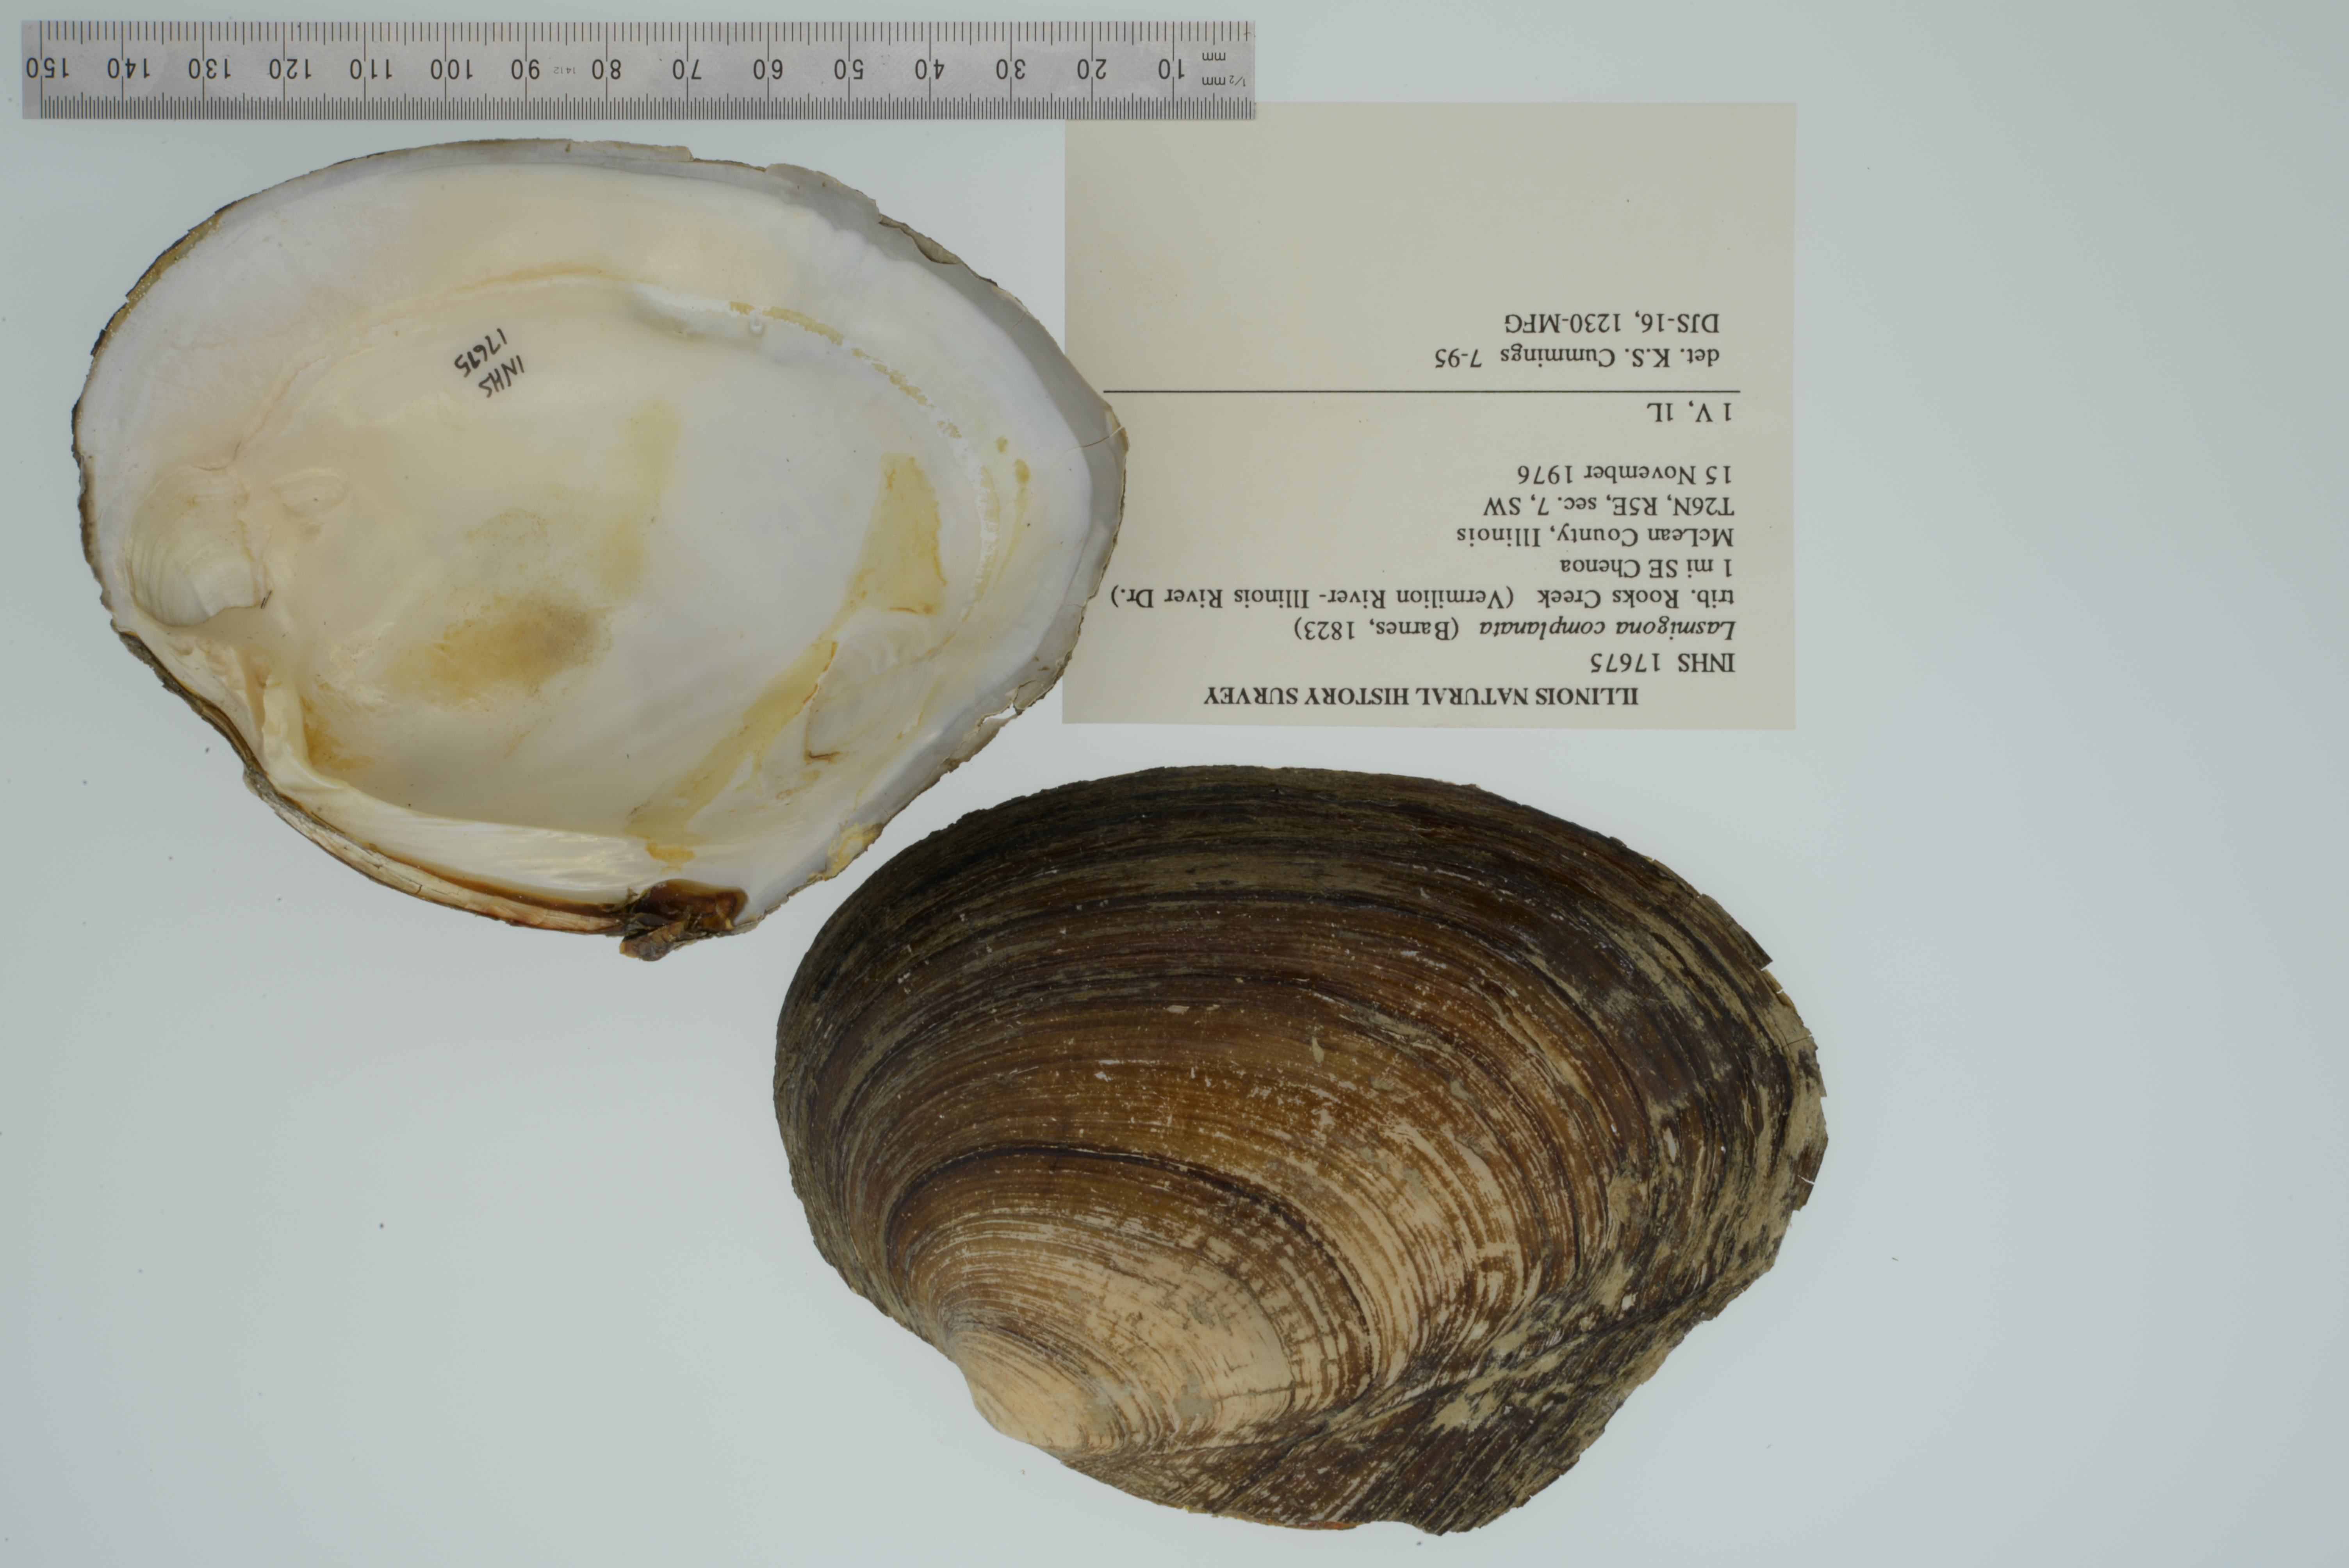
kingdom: Animalia
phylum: Mollusca
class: Bivalvia
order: Unionida
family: Unionidae
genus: Lasmigona
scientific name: Lasmigona complanata
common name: White heelsplitter
